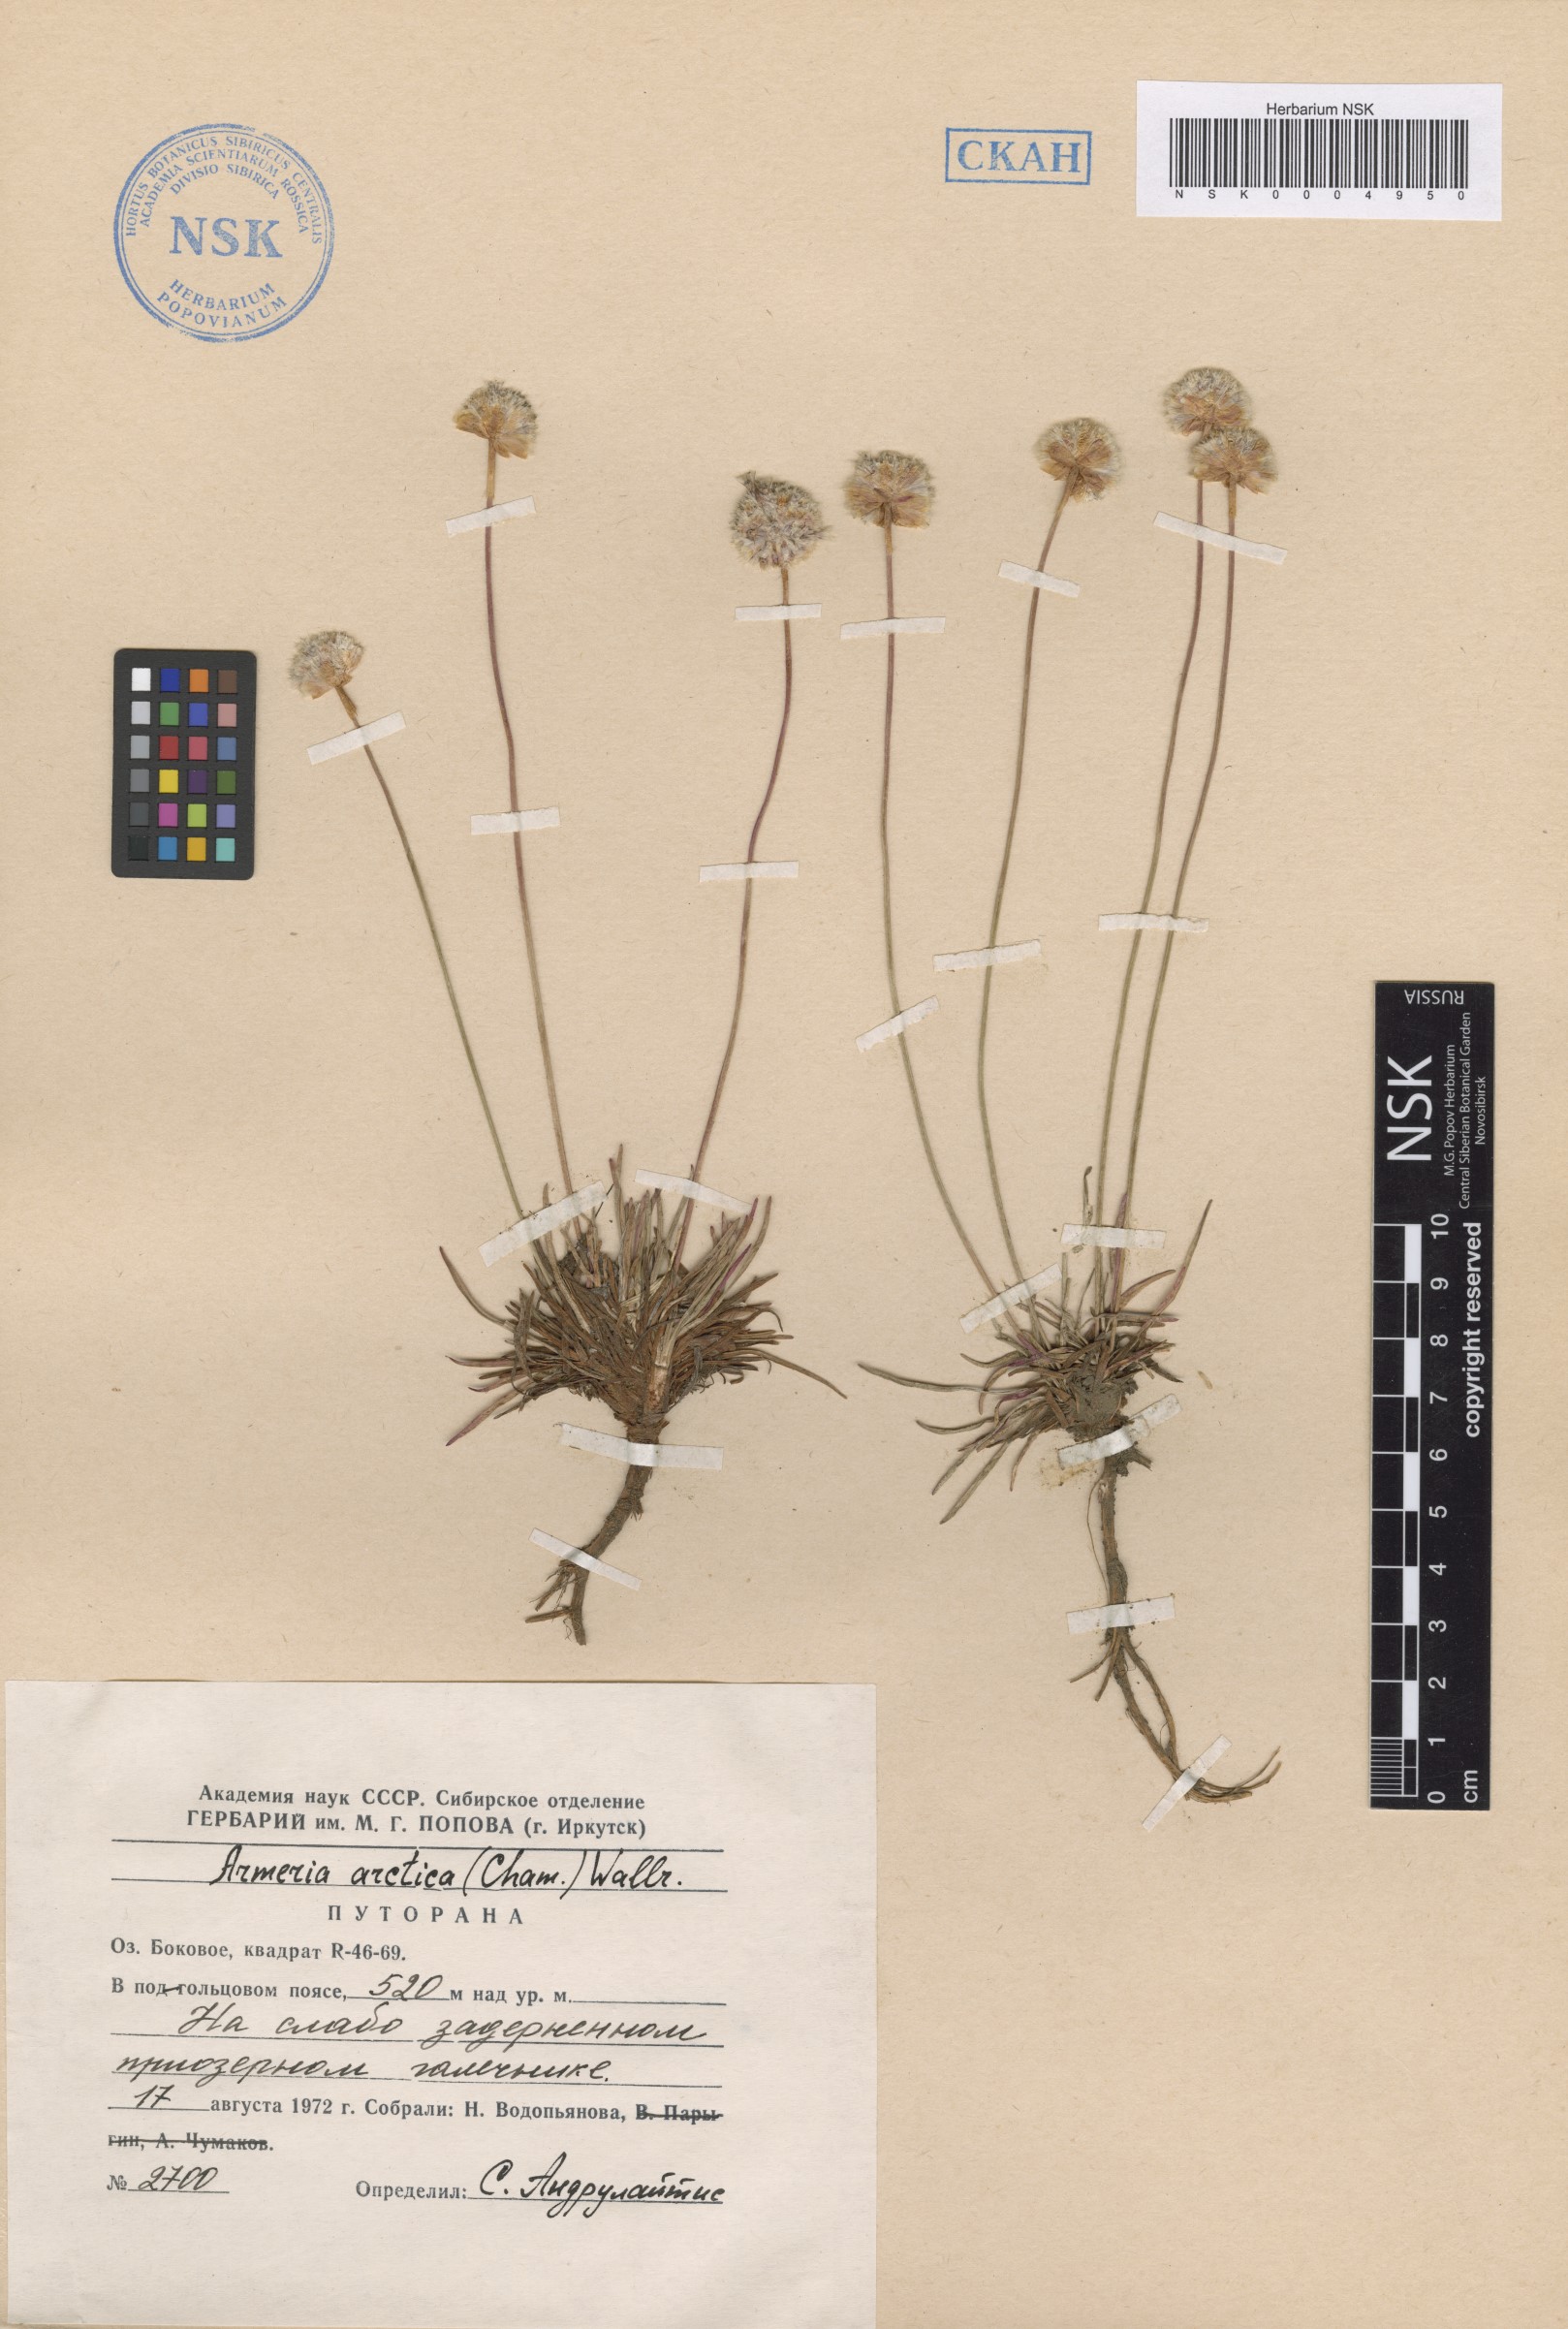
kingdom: Plantae
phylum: Tracheophyta
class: Magnoliopsida
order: Caryophyllales
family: Plumbaginaceae
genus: Armeria
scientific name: Armeria maritima
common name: Thrift
